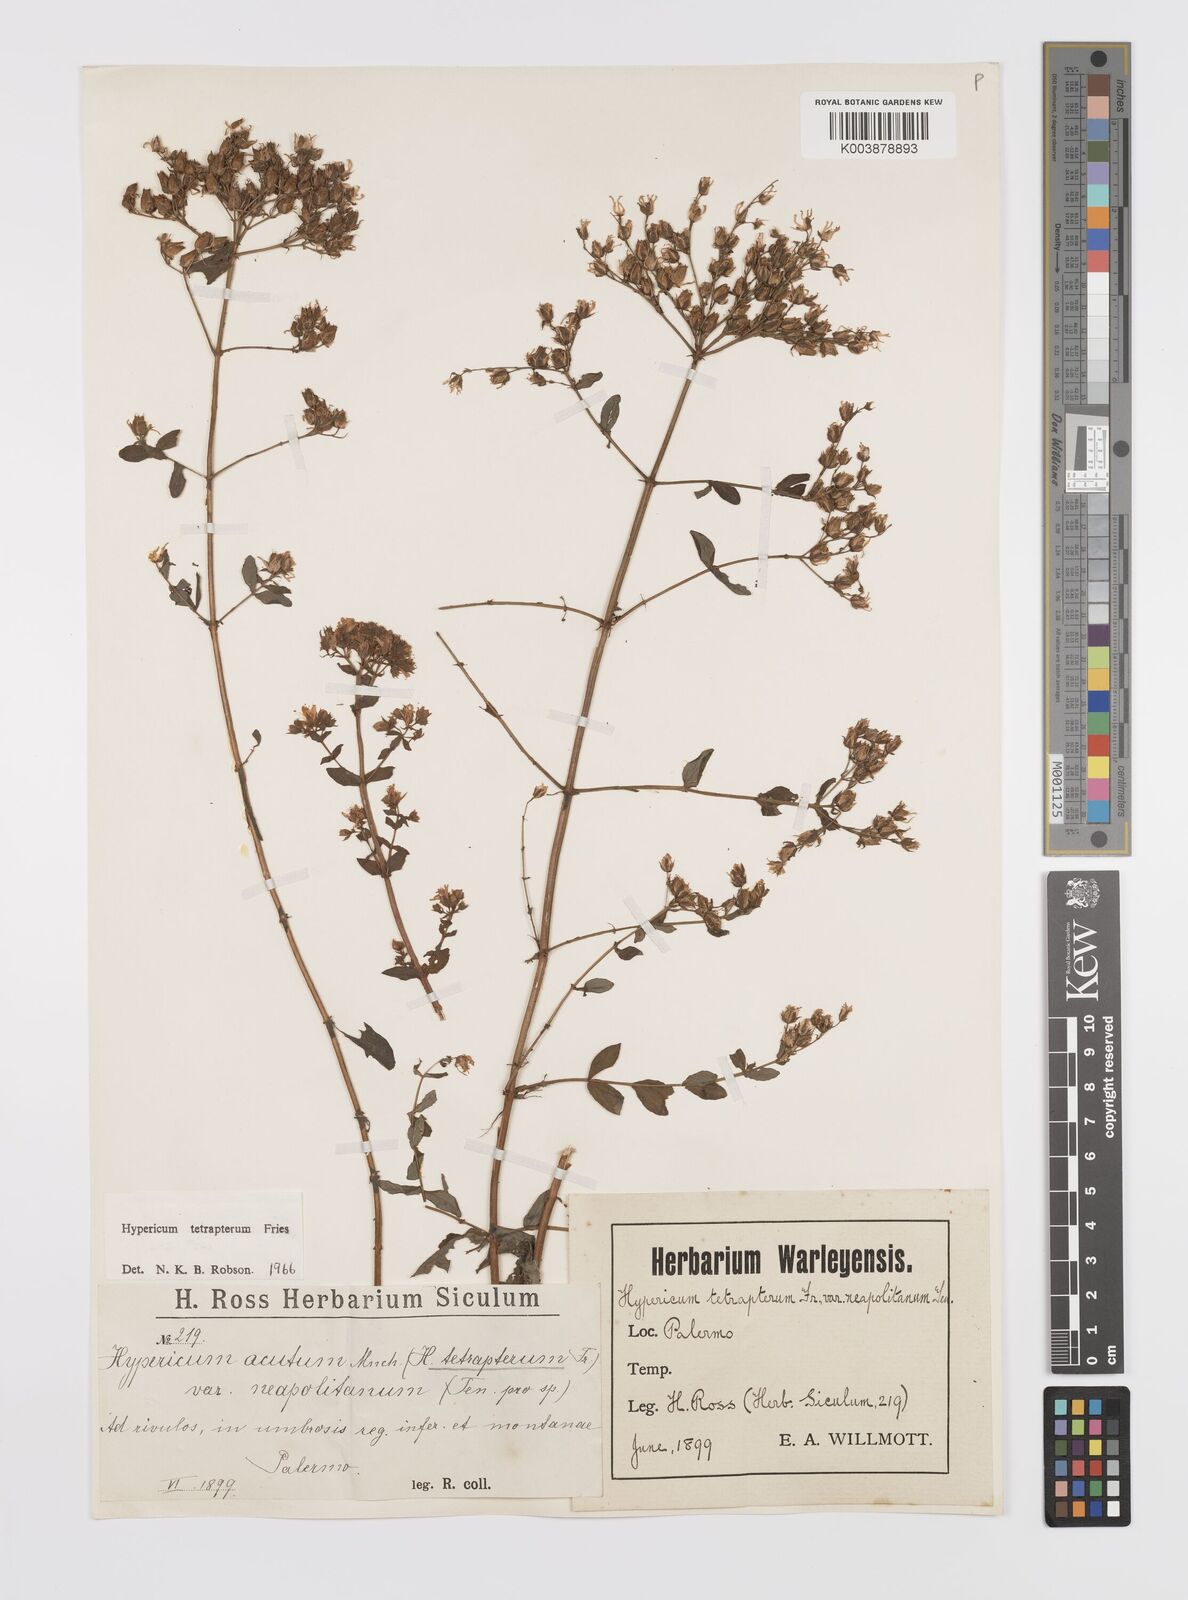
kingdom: Plantae
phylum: Tracheophyta
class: Magnoliopsida
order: Malpighiales
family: Hypericaceae
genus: Hypericum
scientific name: Hypericum tetrapterum
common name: Square-stalked st. john's-wort
